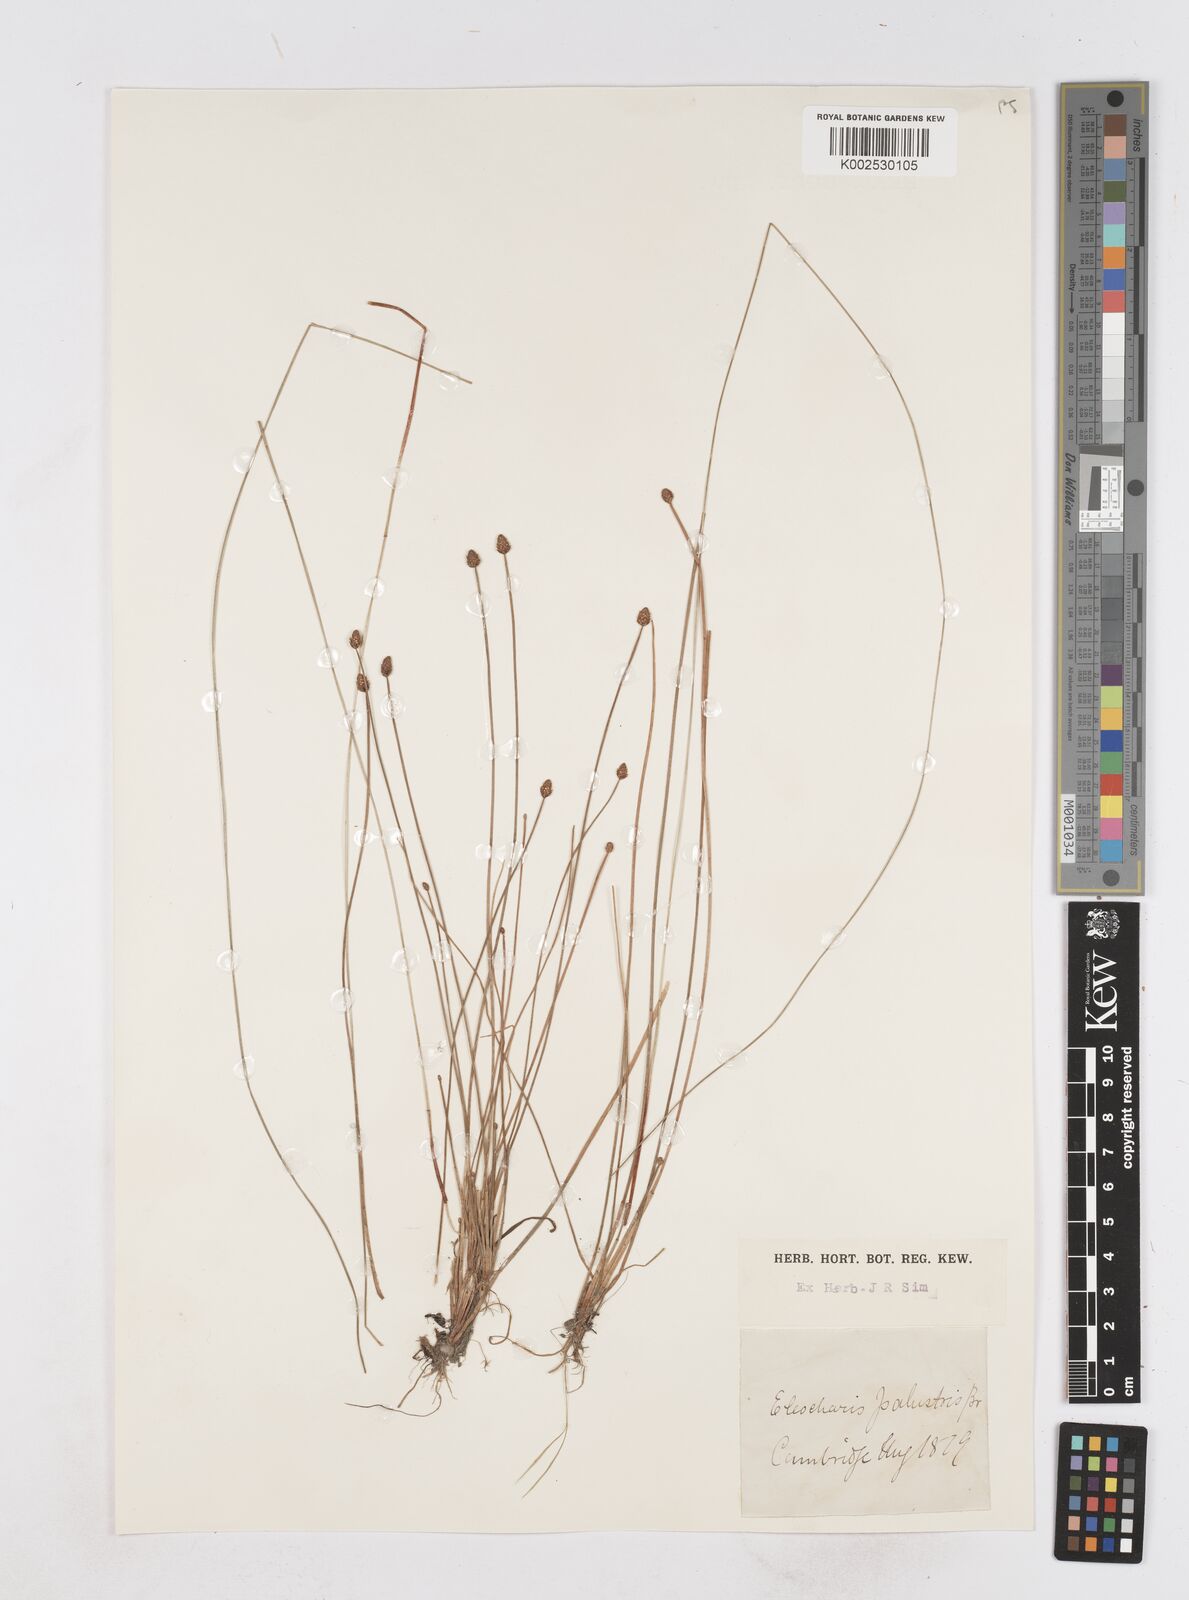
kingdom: Plantae
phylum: Tracheophyta
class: Liliopsida
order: Poales
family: Cyperaceae
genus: Eleocharis
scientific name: Eleocharis palustris
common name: Common spike-rush
